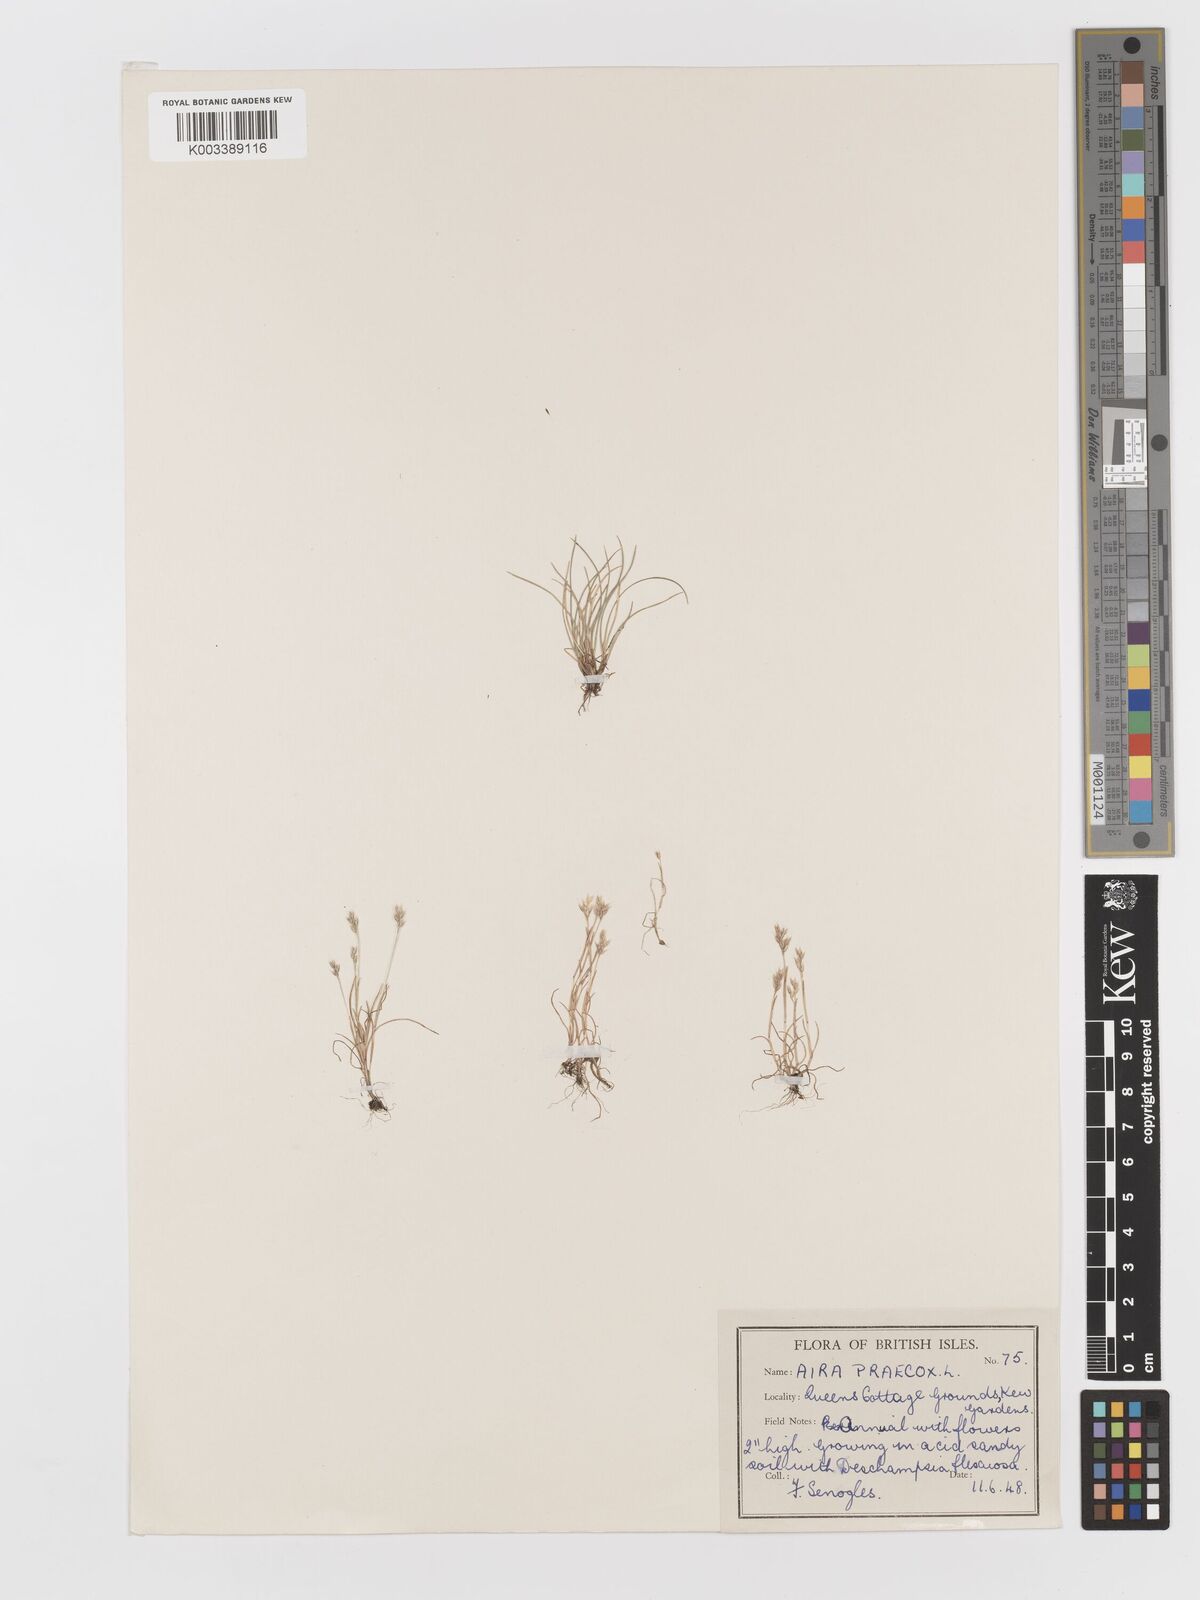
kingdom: Plantae
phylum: Tracheophyta
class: Liliopsida
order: Poales
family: Poaceae
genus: Aira
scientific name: Aira praecox
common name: Early hair-grass
